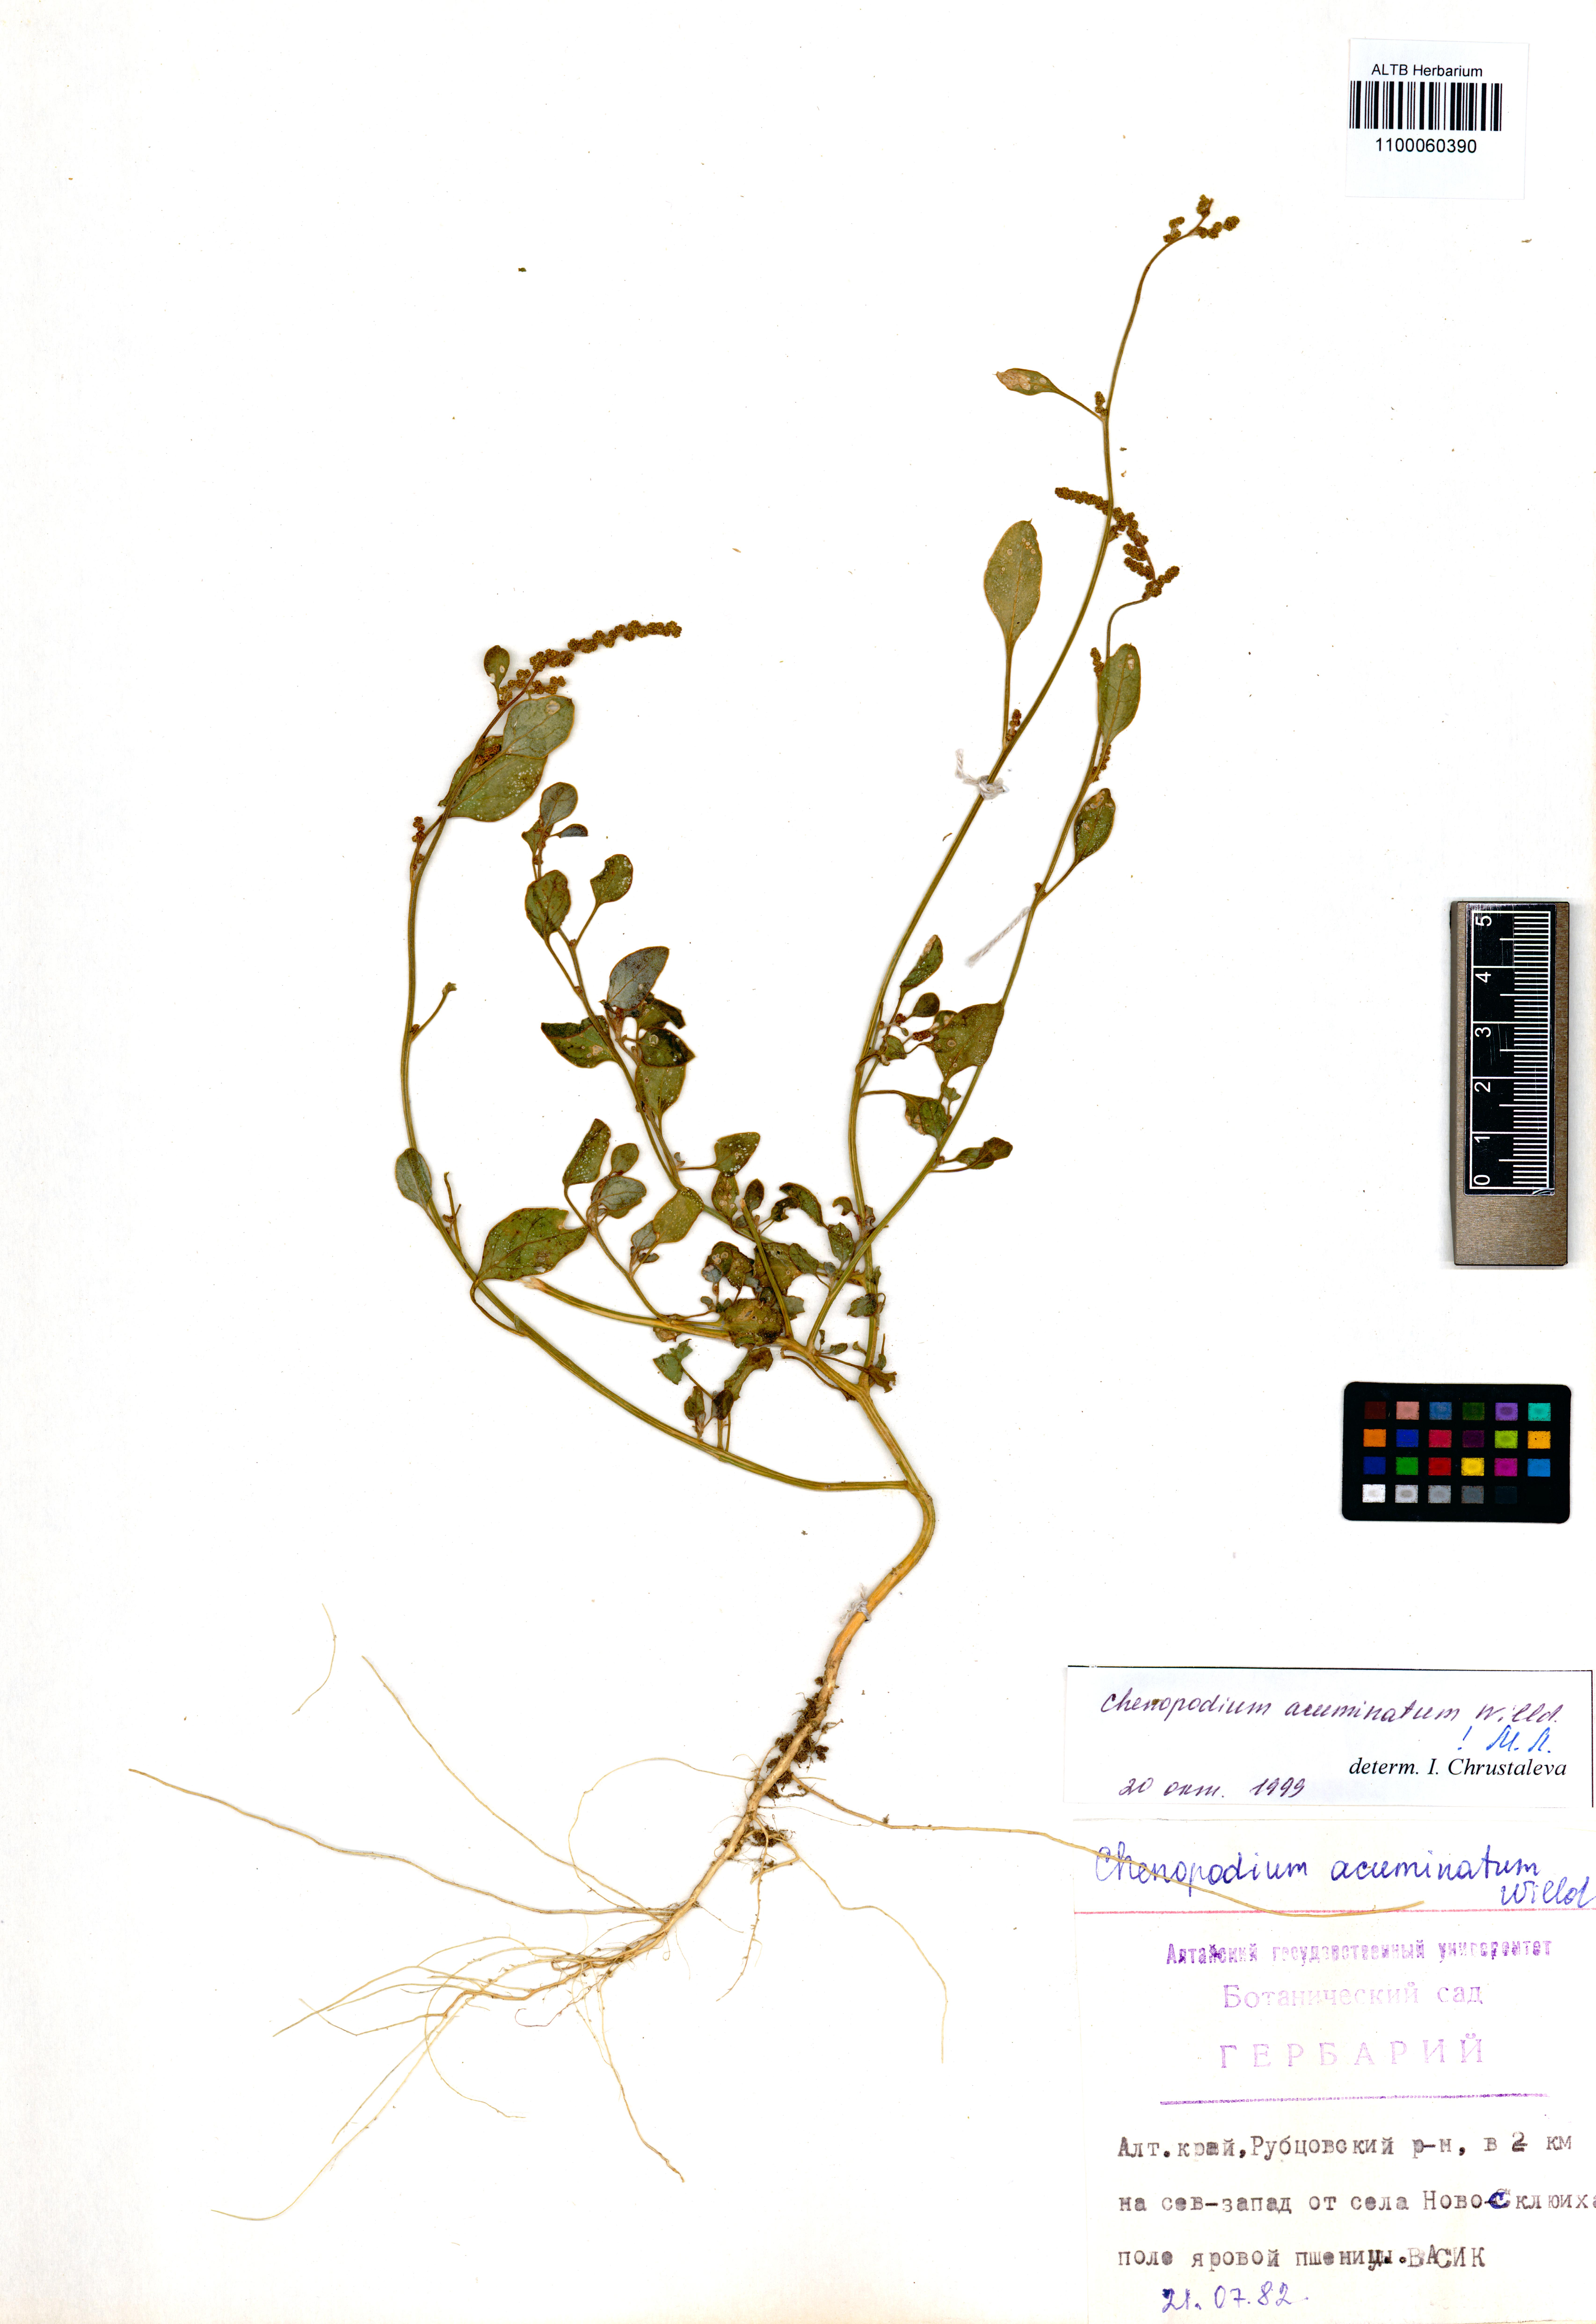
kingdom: Plantae
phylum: Tracheophyta
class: Magnoliopsida
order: Caryophyllales
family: Amaranthaceae
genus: Chenopodium
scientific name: Chenopodium acuminatum
